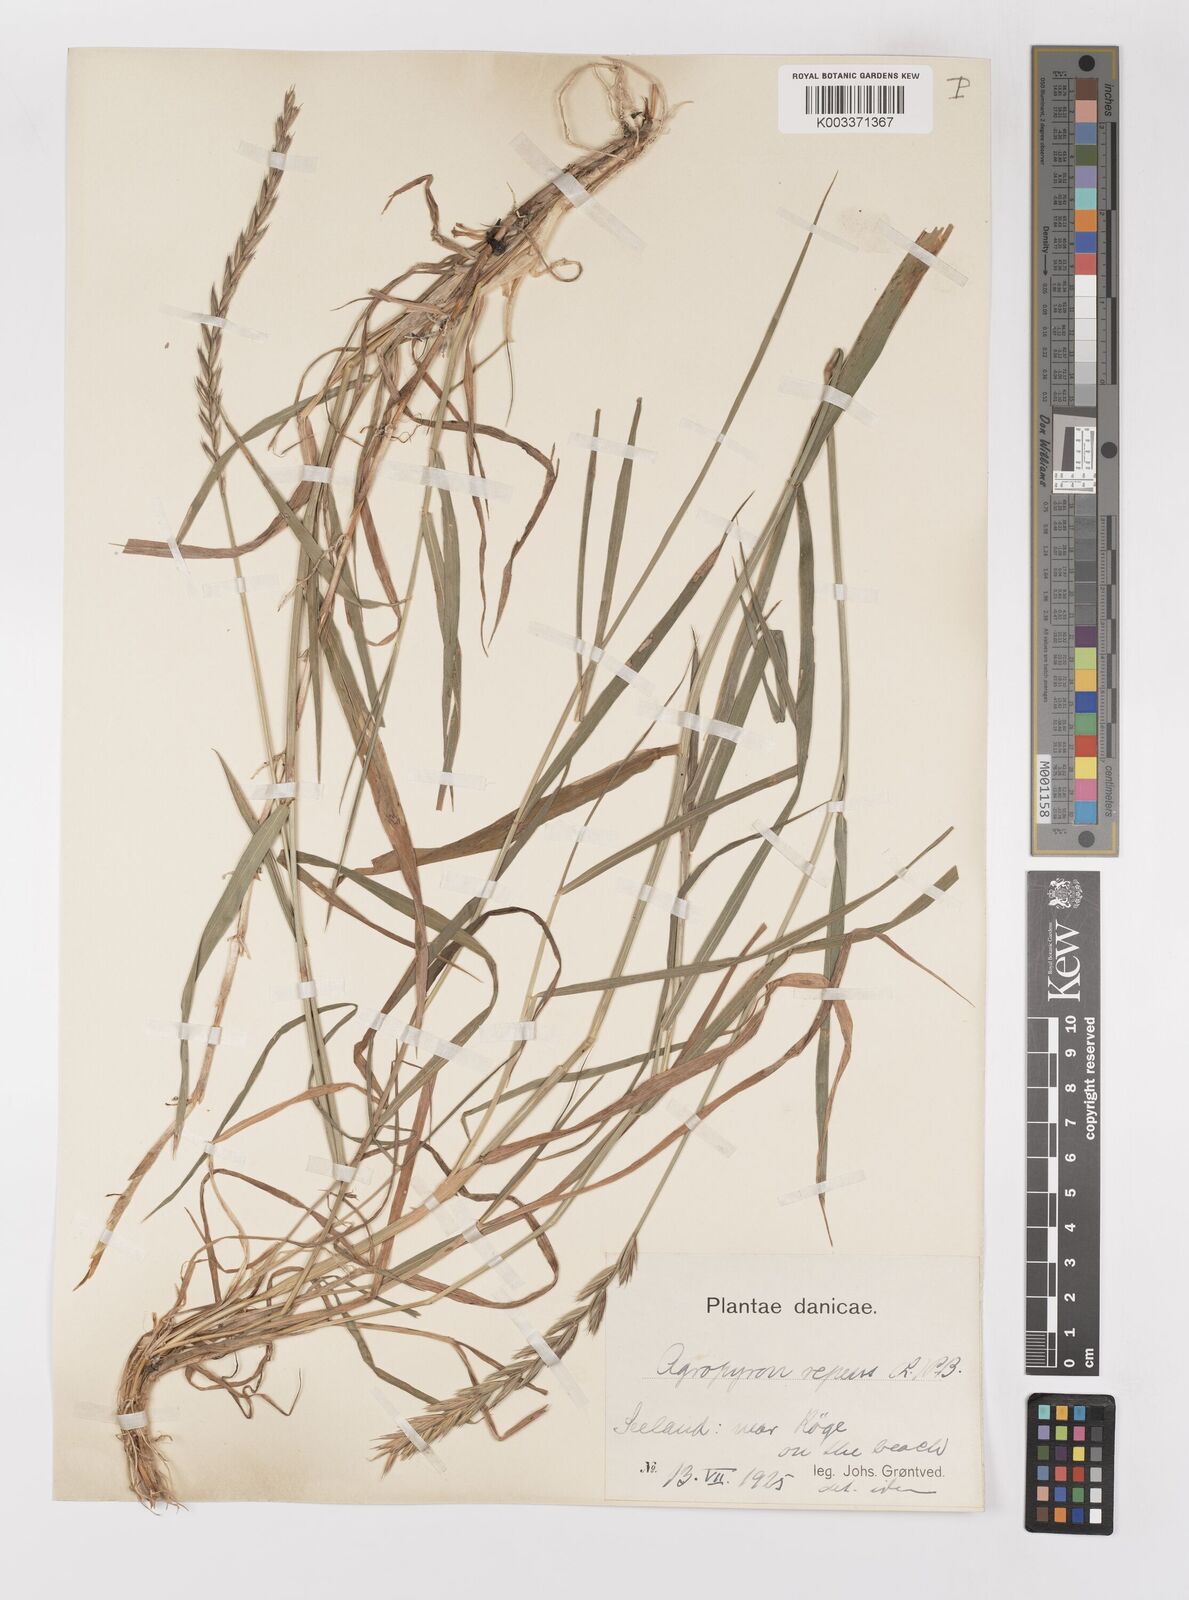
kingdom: Plantae
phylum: Tracheophyta
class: Liliopsida
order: Poales
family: Poaceae
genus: Elymus
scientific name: Elymus repens
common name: Quackgrass
